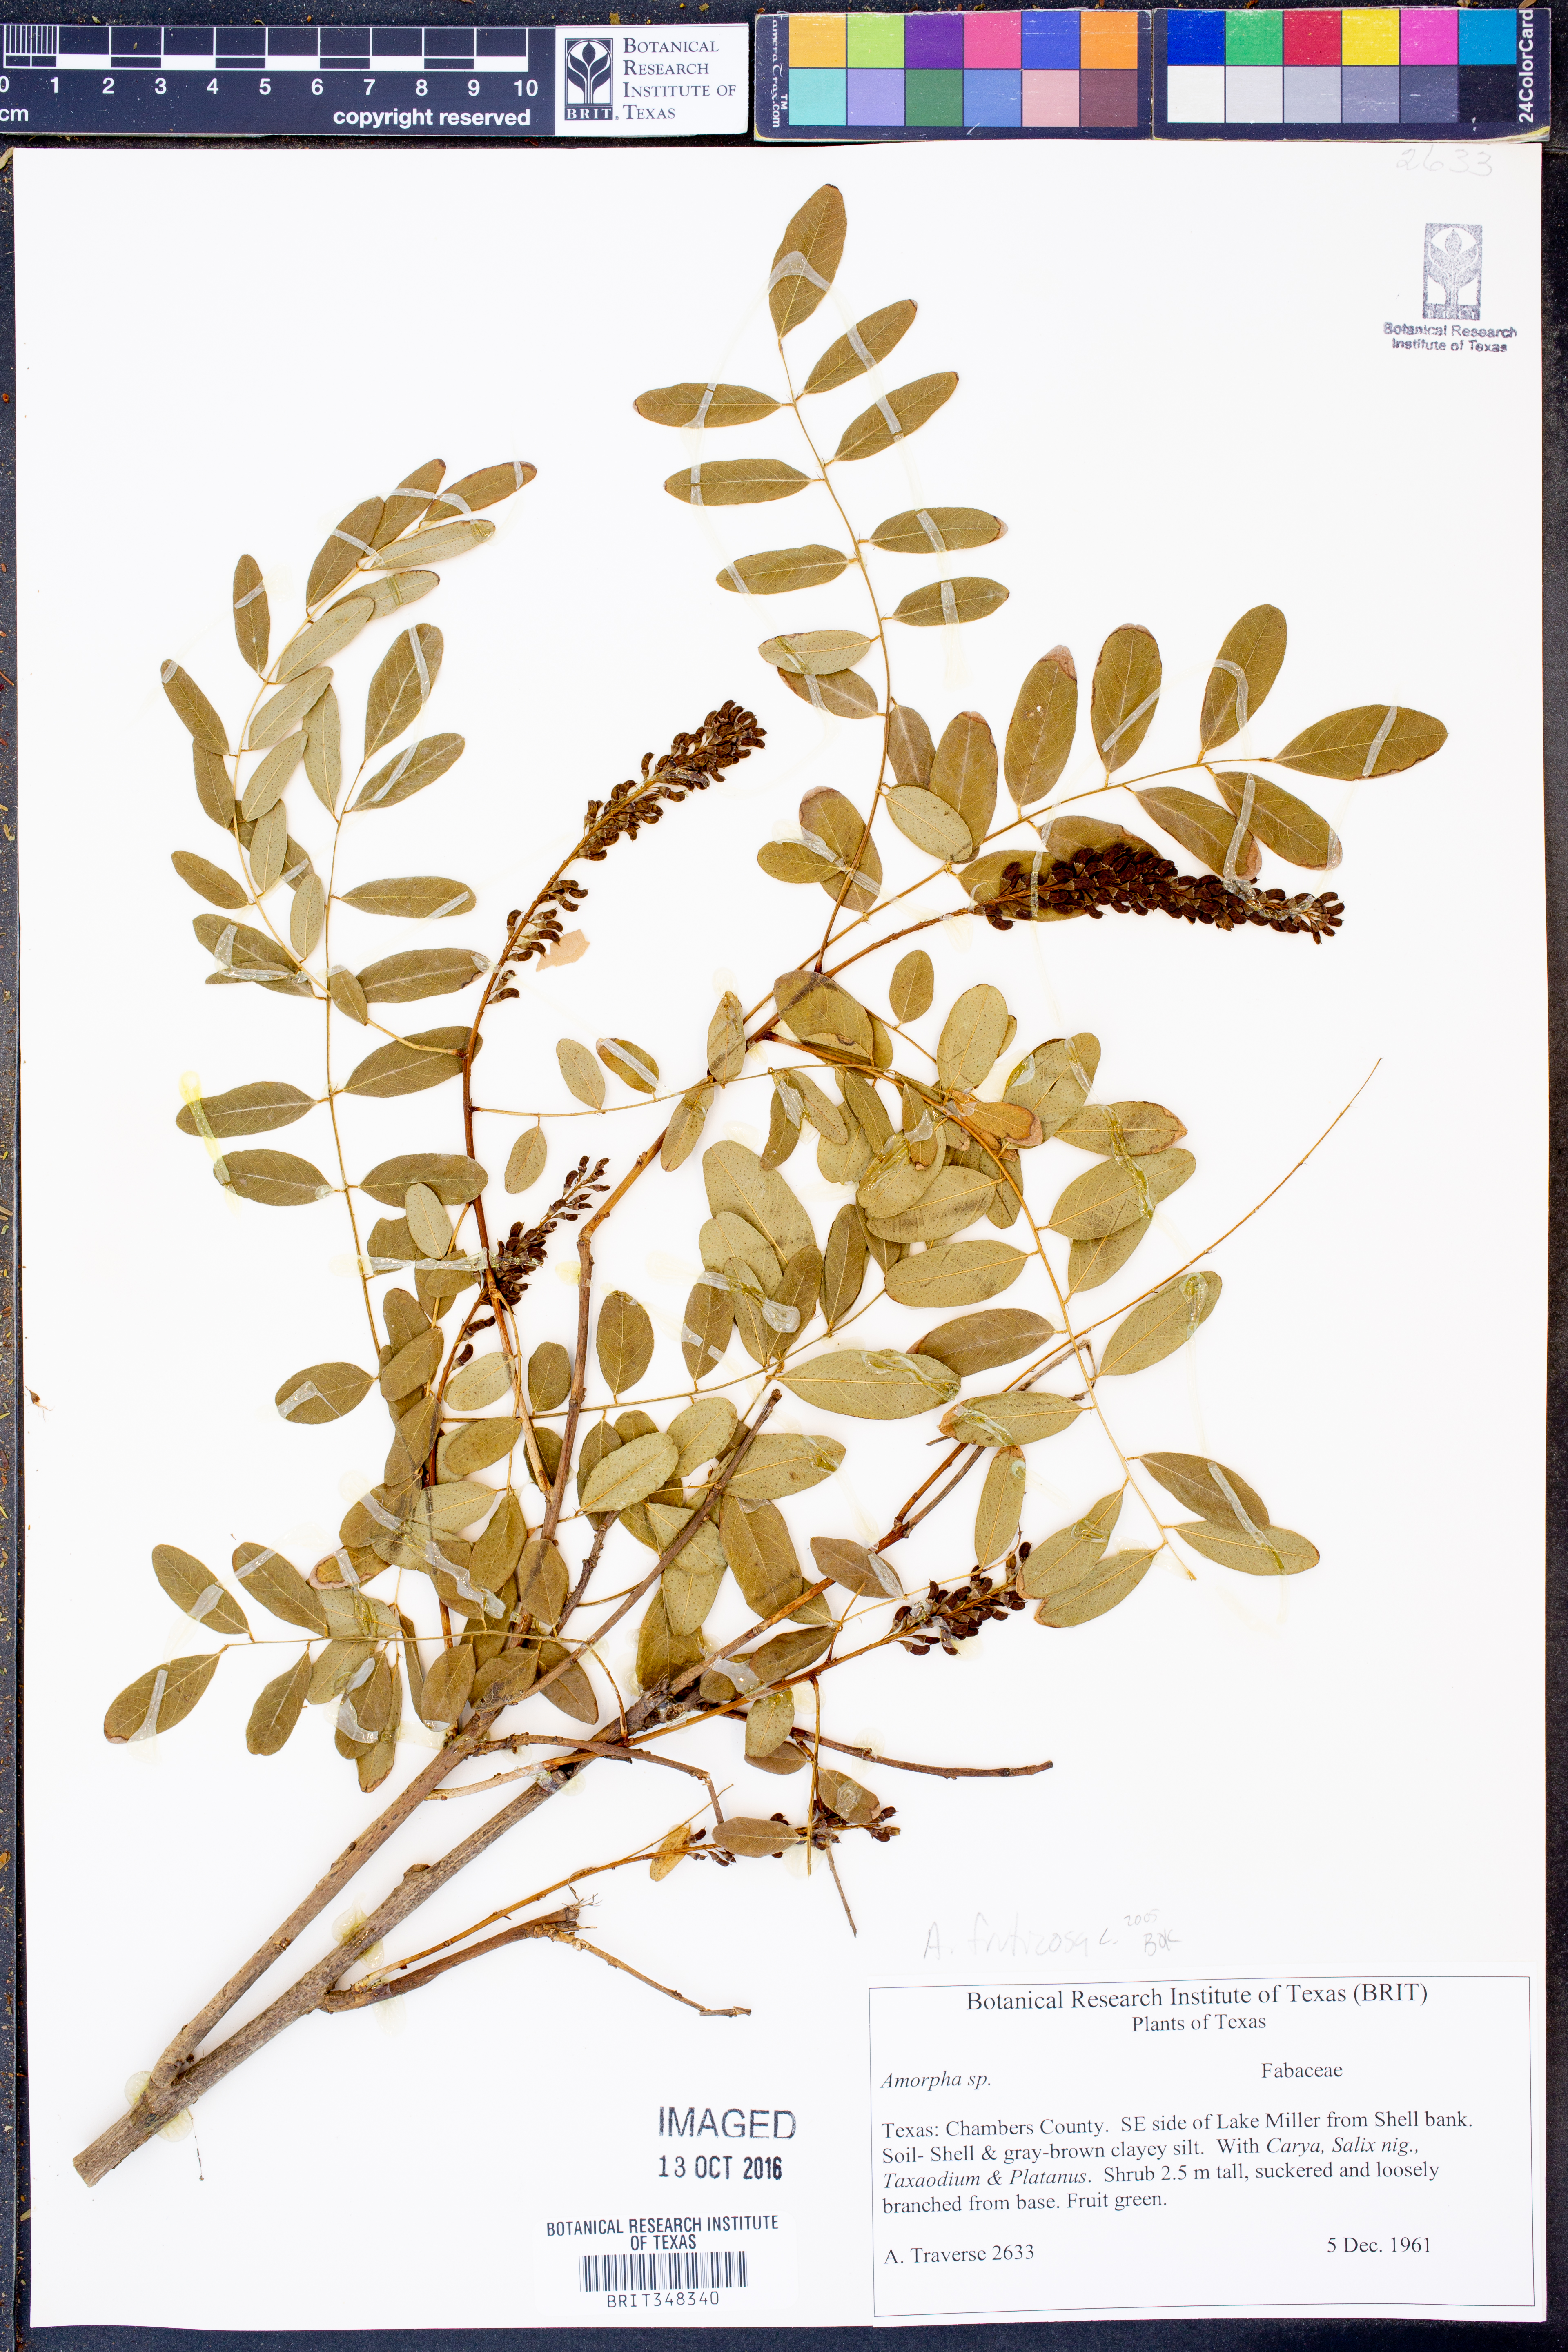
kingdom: Plantae
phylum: Tracheophyta
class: Magnoliopsida
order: Fabales
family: Fabaceae
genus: Amorpha
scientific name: Amorpha fruticosa
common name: False indigo
